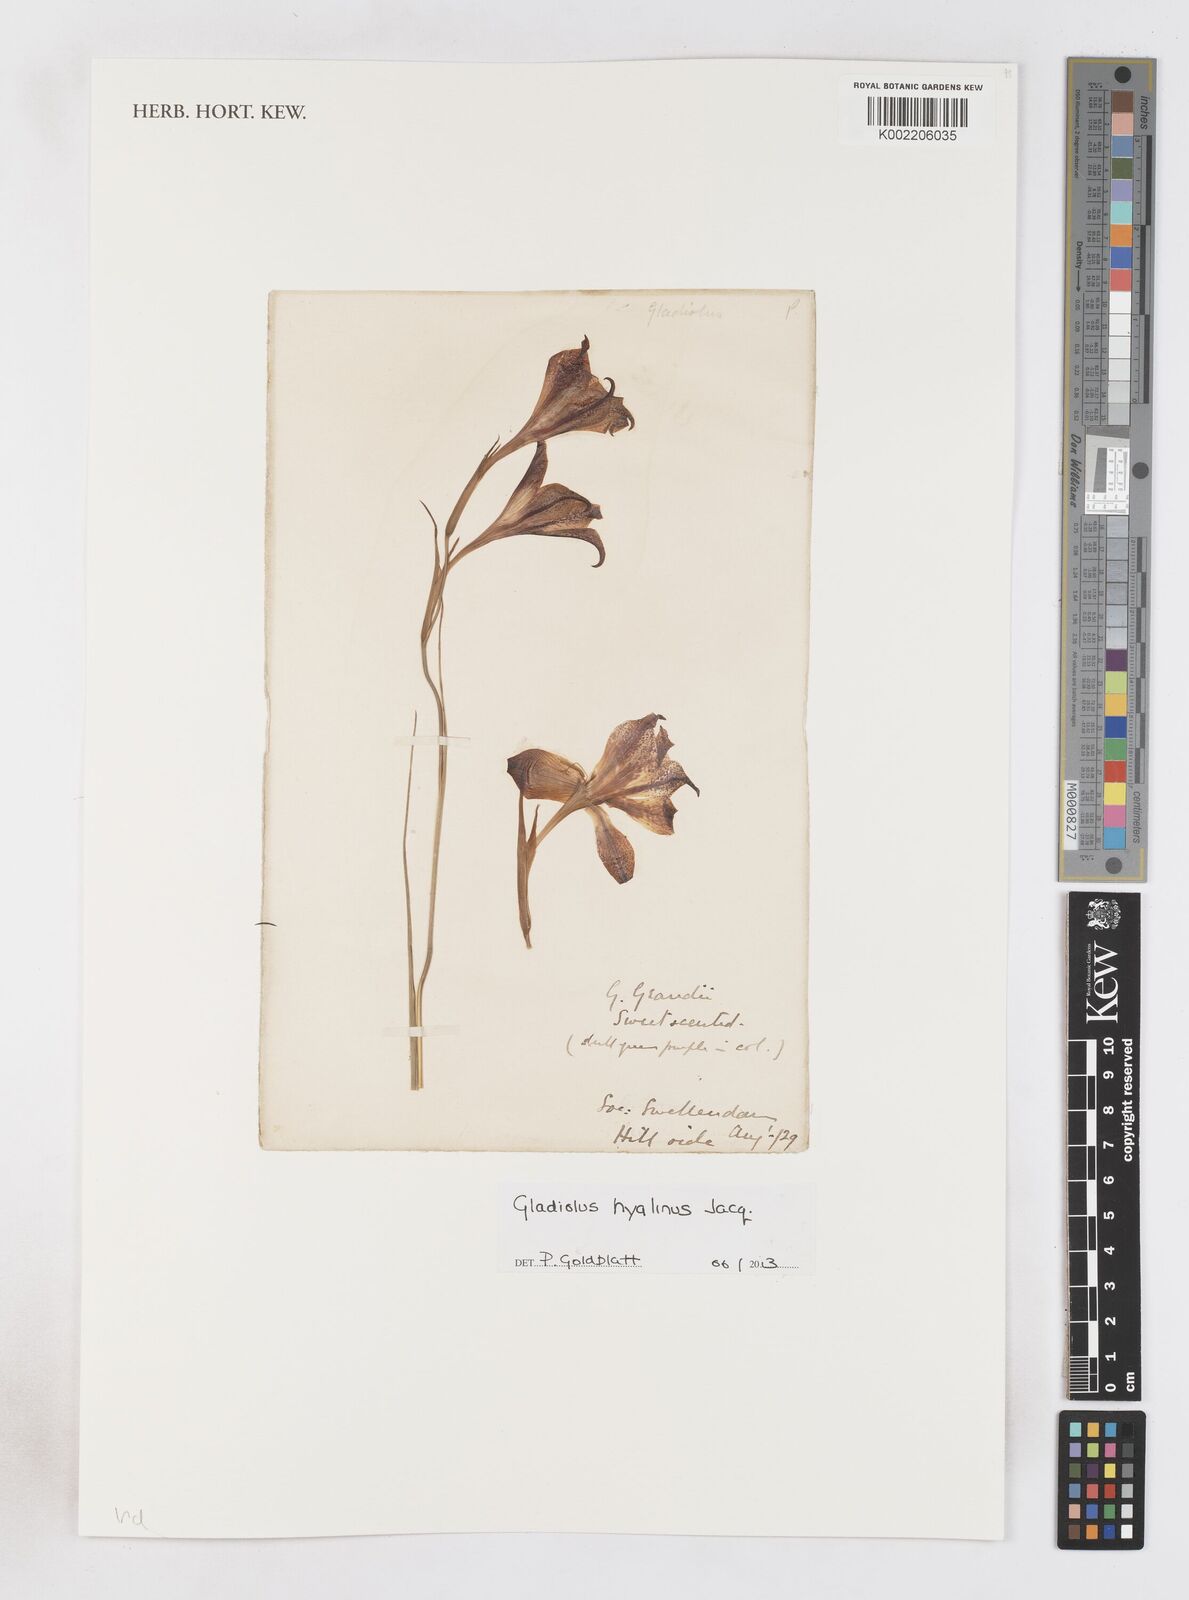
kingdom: Plantae
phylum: Tracheophyta
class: Liliopsida
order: Asparagales
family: Iridaceae
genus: Gladiolus
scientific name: Gladiolus hyalinus
